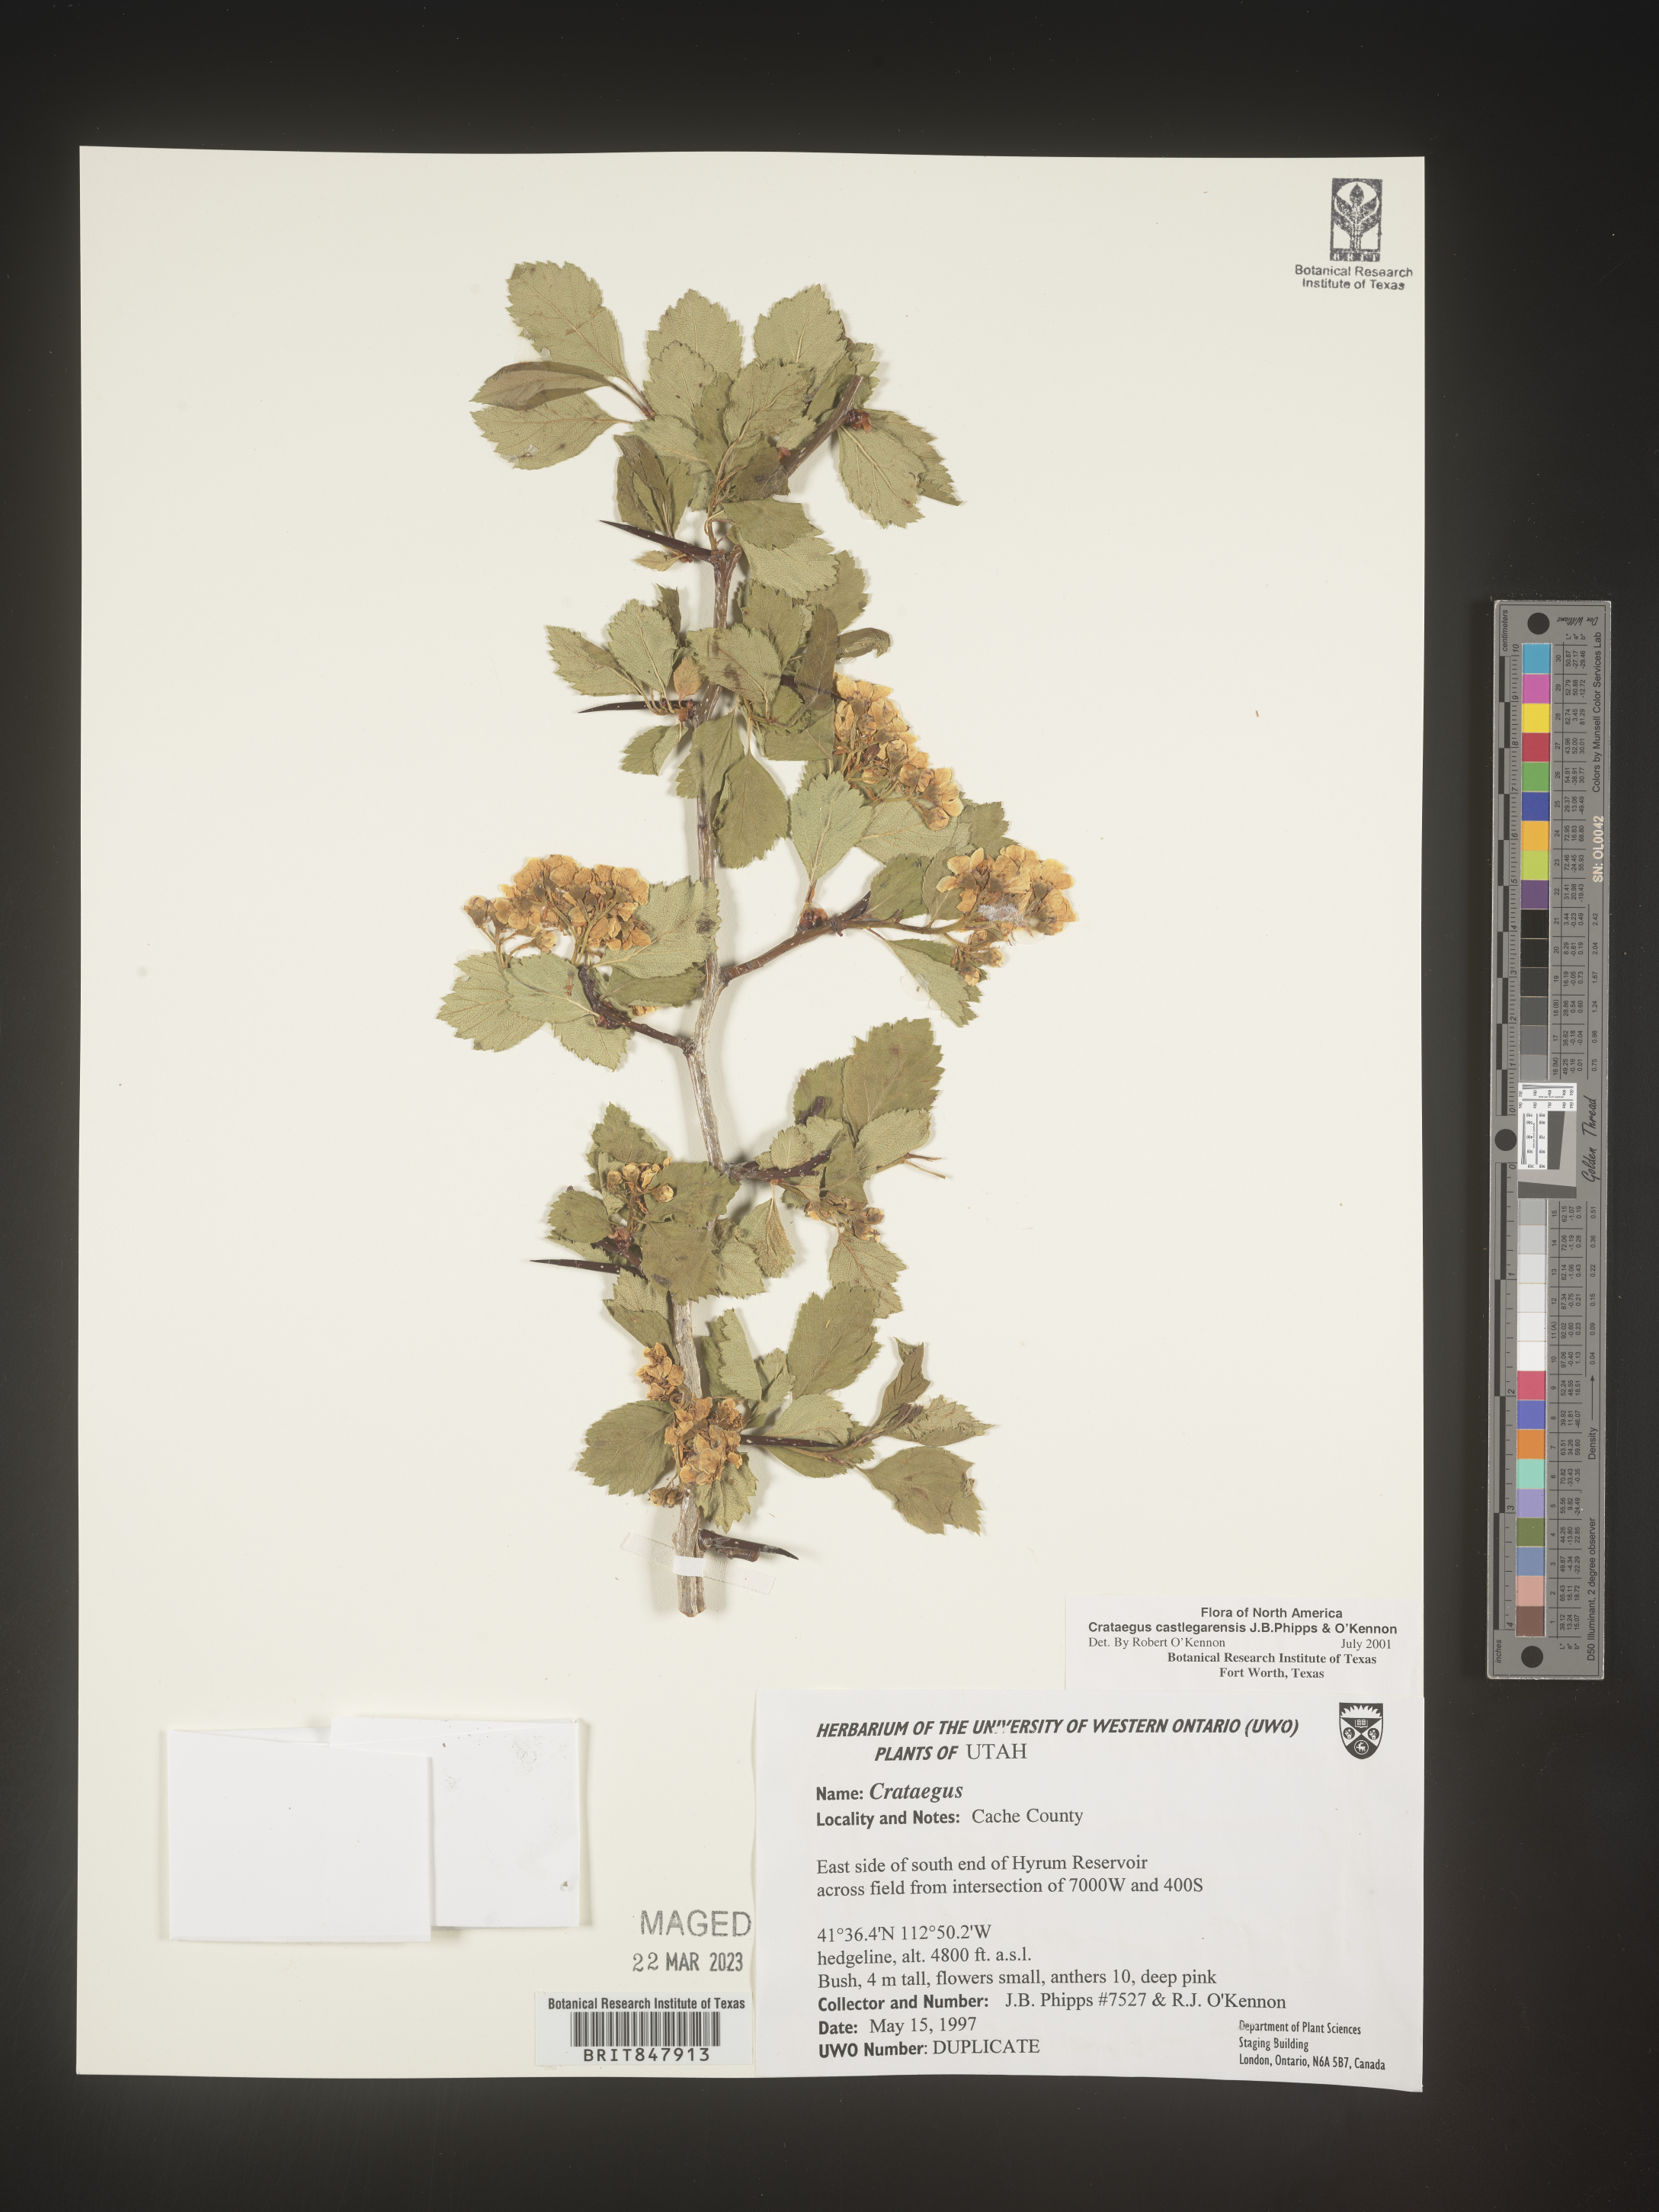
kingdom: Plantae
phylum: Tracheophyta
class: Magnoliopsida
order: Rosales
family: Rosaceae
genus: Crataegus
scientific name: Crataegus castlegarensis
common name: Castlegar hawthorn
